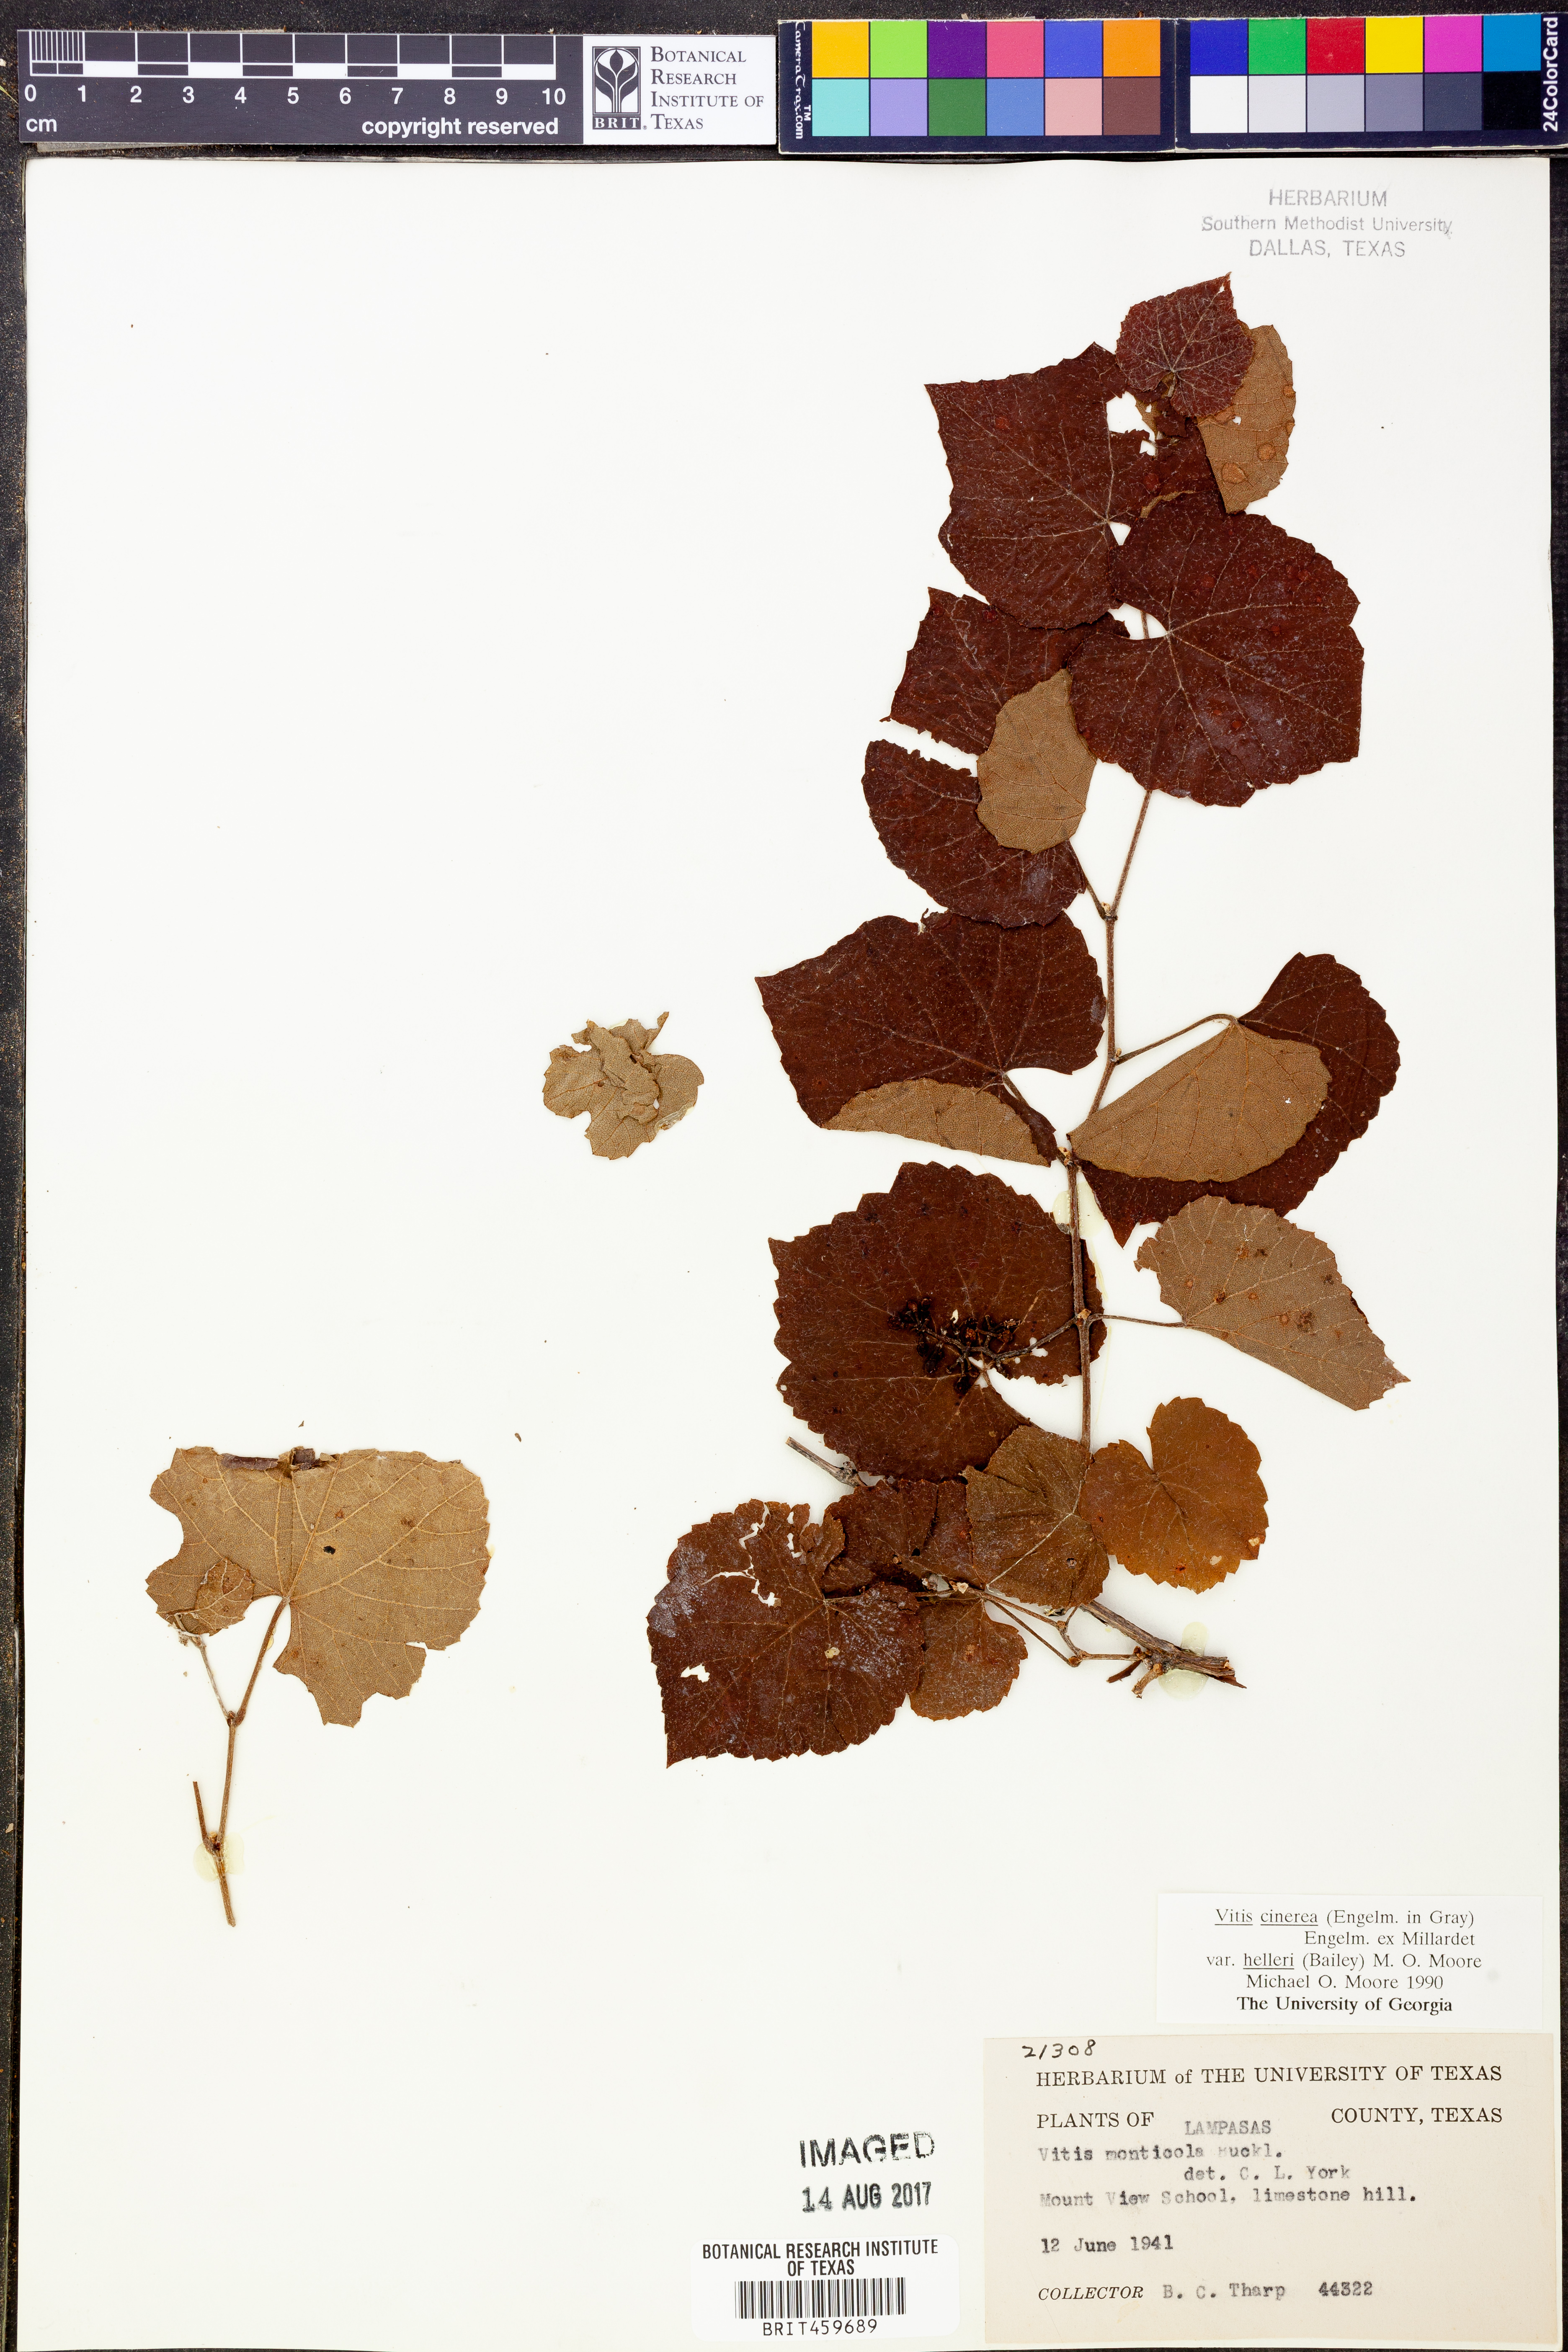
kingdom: Plantae
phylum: Tracheophyta
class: Magnoliopsida
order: Vitales
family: Vitaceae
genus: Vitis
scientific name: Vitis cinerea
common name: Ashy grape
